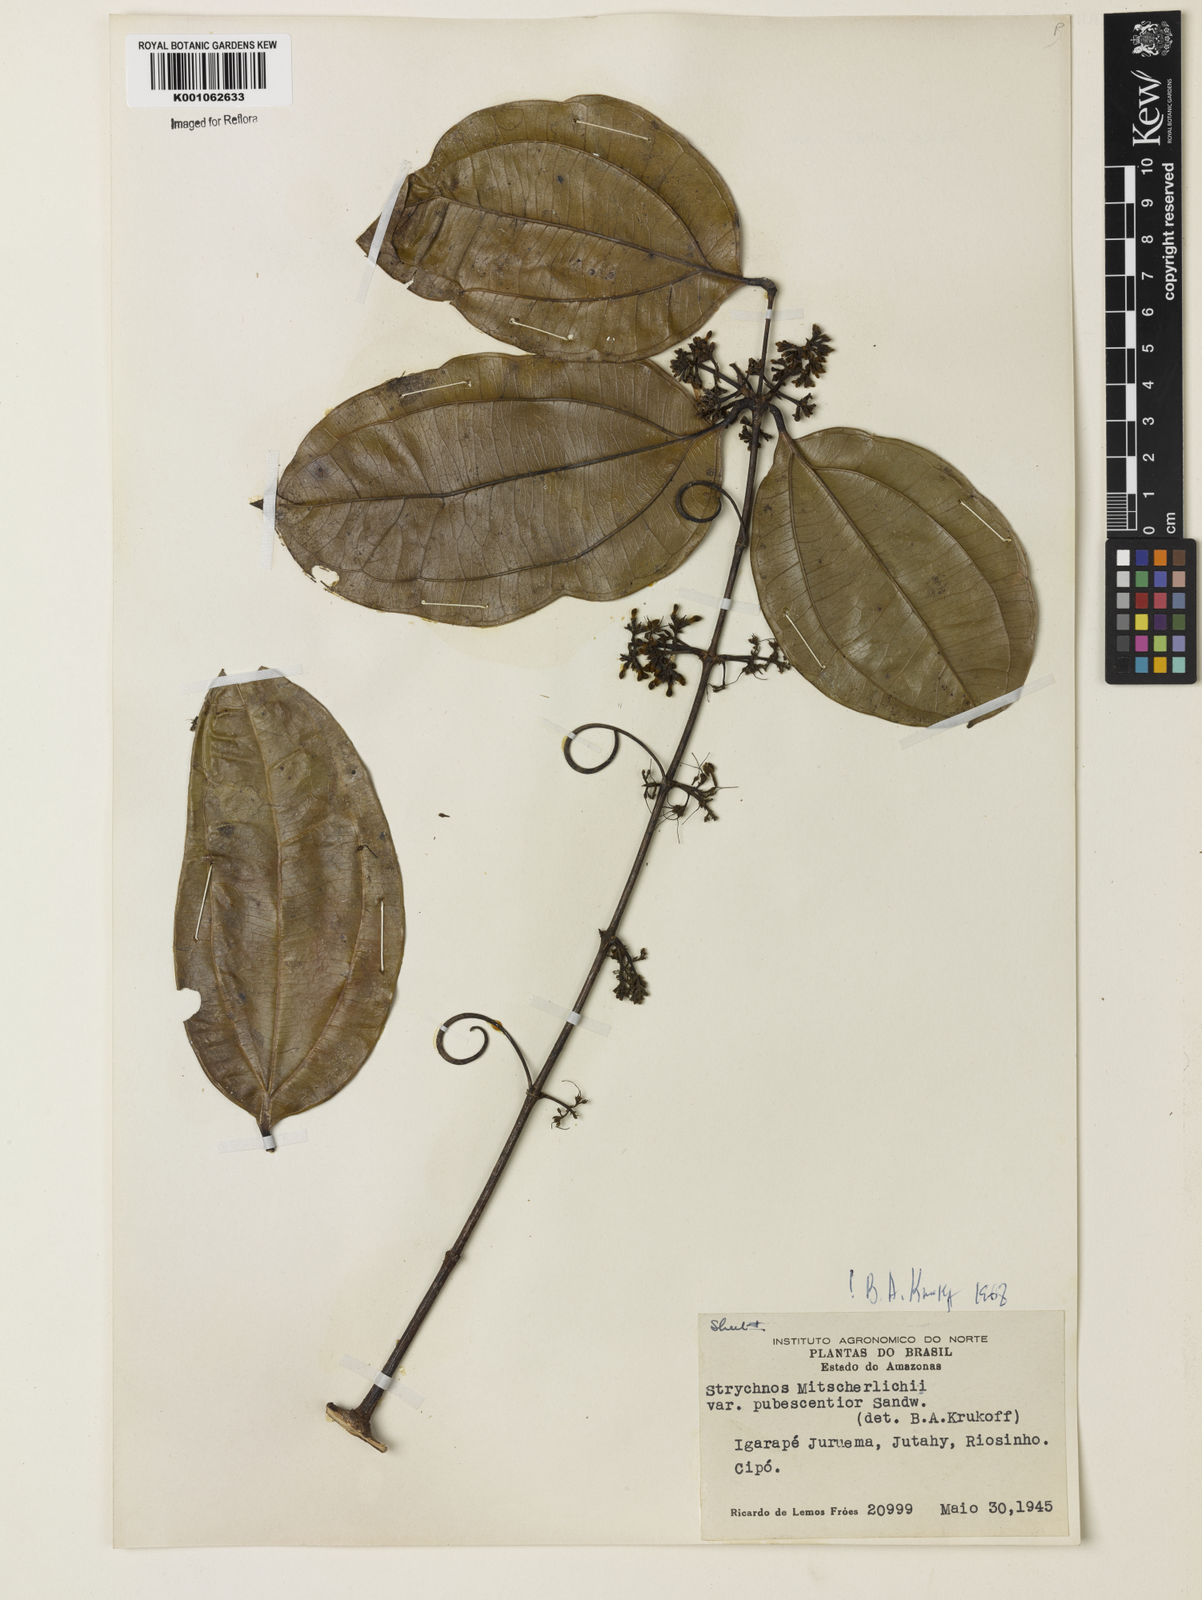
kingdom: Plantae
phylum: Tracheophyta
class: Magnoliopsida
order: Gentianales
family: Loganiaceae
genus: Strychnos
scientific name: Strychnos mitscherlichii
